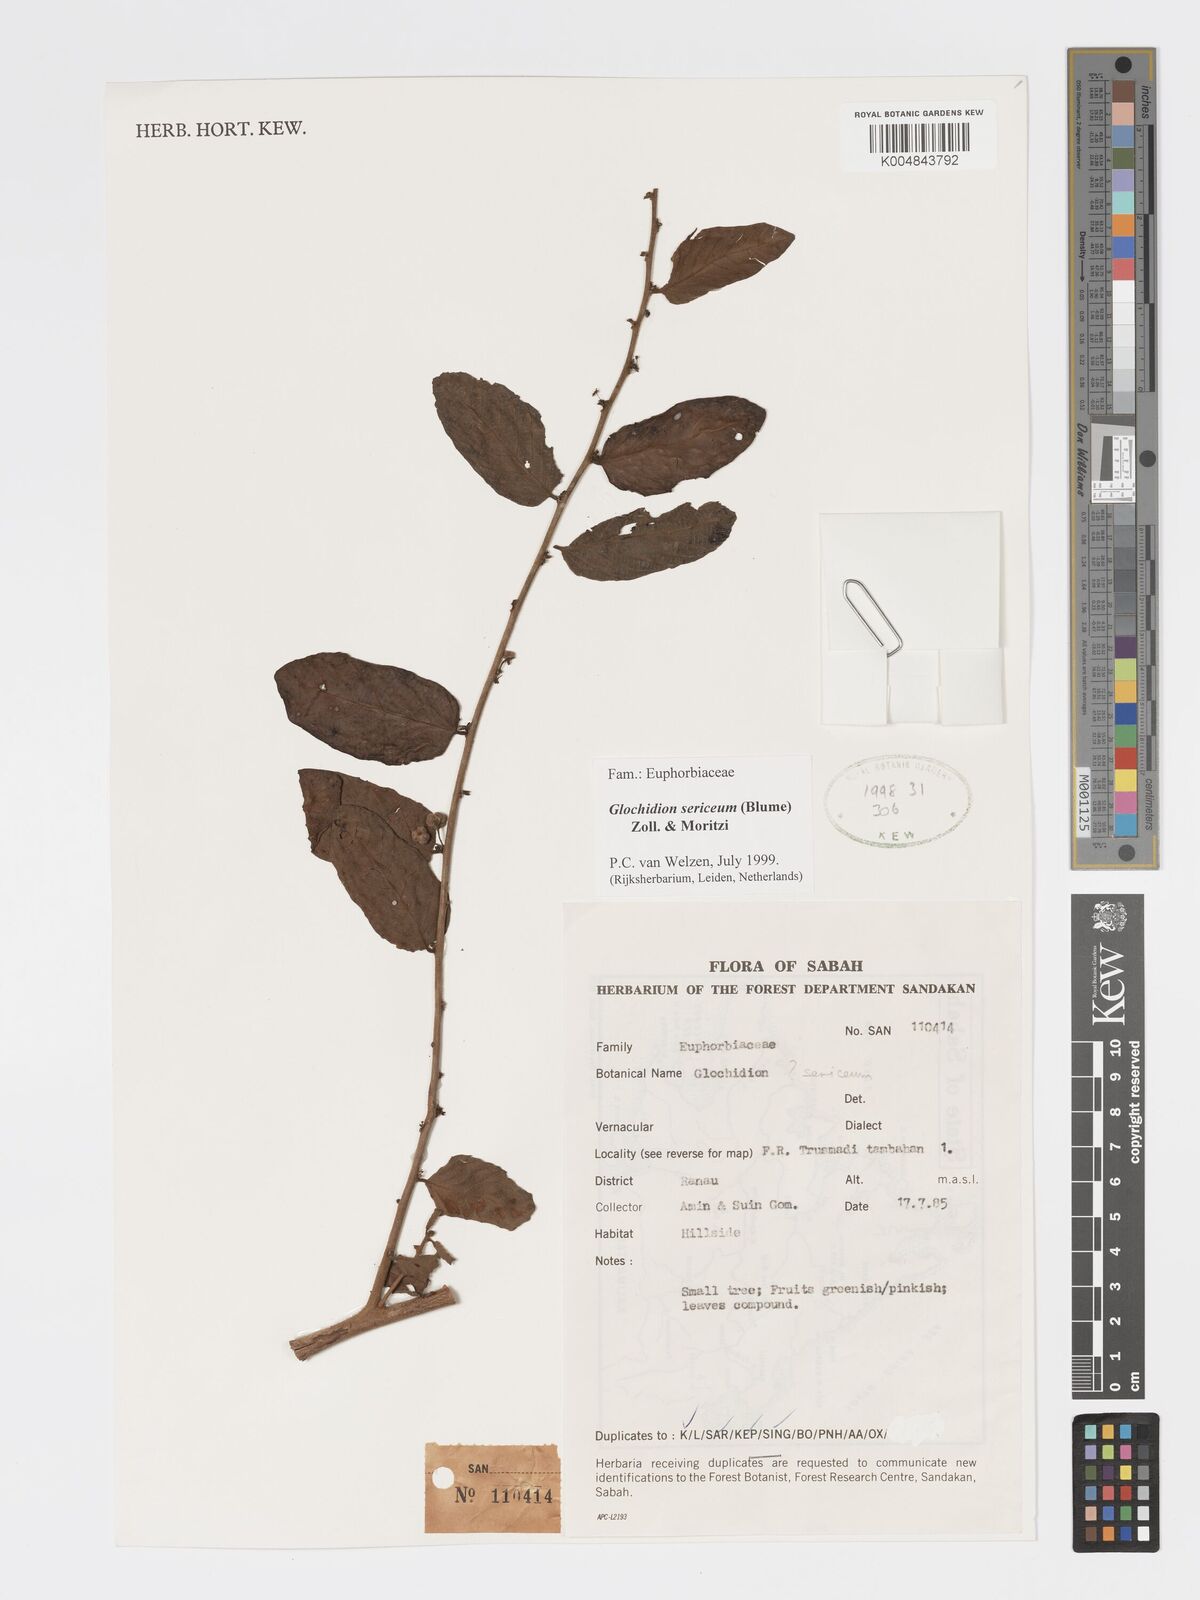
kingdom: Plantae
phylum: Tracheophyta
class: Magnoliopsida
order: Malpighiales
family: Phyllanthaceae
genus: Glochidion
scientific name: Glochidion sericeum
